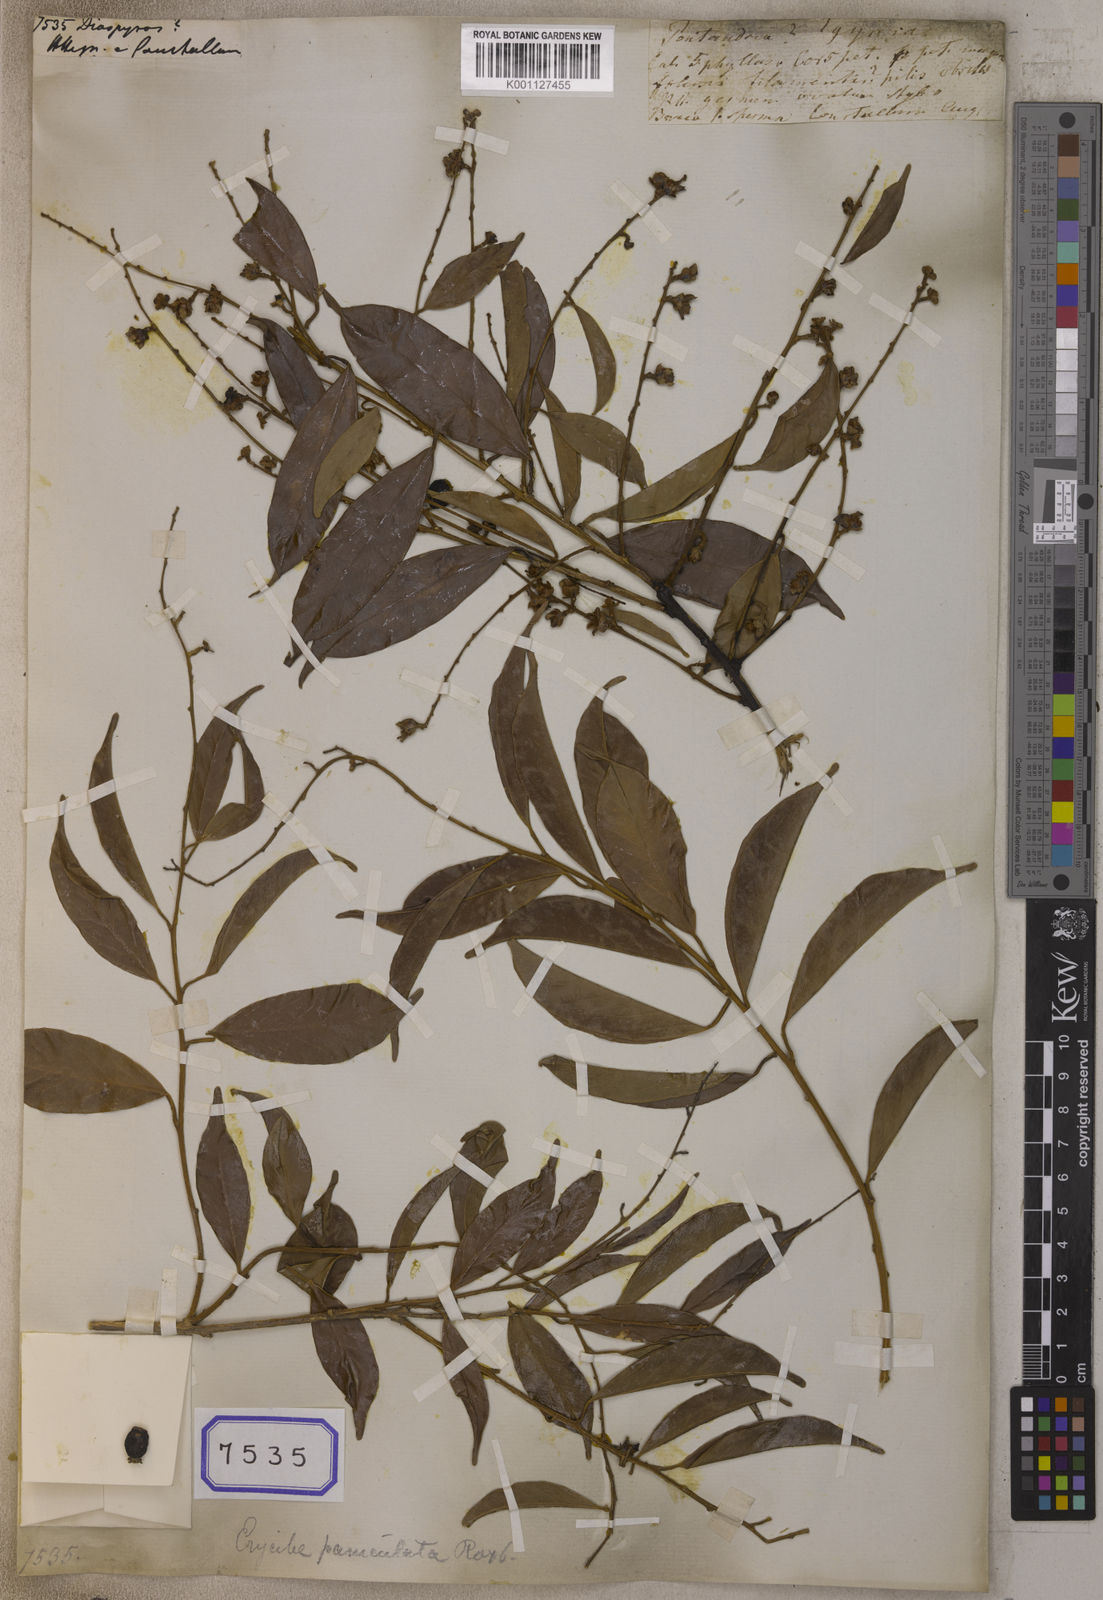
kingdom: Plantae
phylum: Tracheophyta
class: Magnoliopsida
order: Ericales
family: Ebenaceae
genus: Diospyros
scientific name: Diospyros
